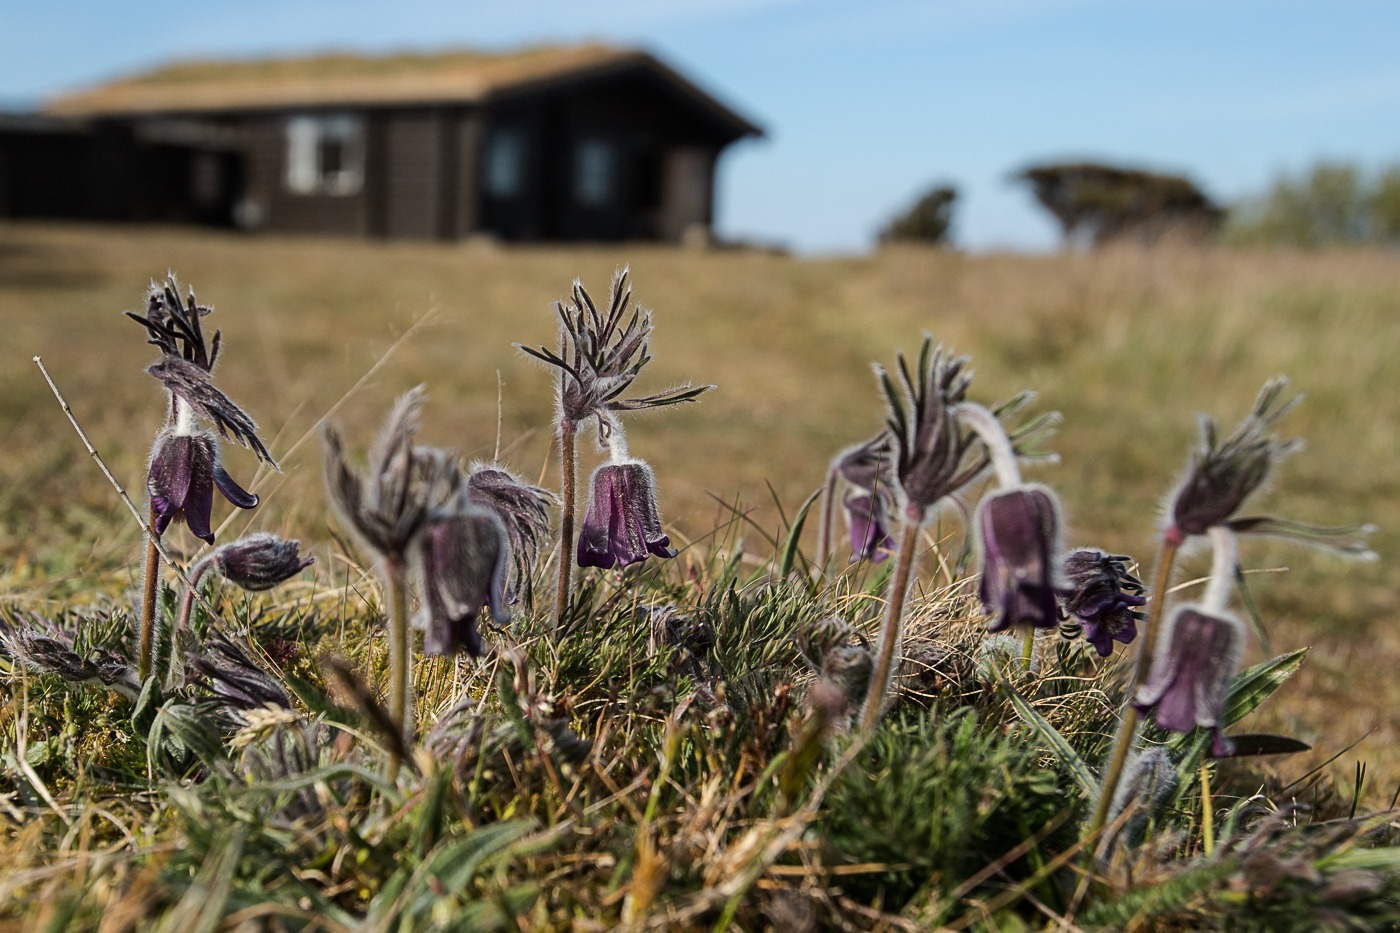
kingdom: Plantae
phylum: Tracheophyta
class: Magnoliopsida
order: Ranunculales
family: Ranunculaceae
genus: Pulsatilla
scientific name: Pulsatilla pratensis
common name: Nikkende kobjælde
